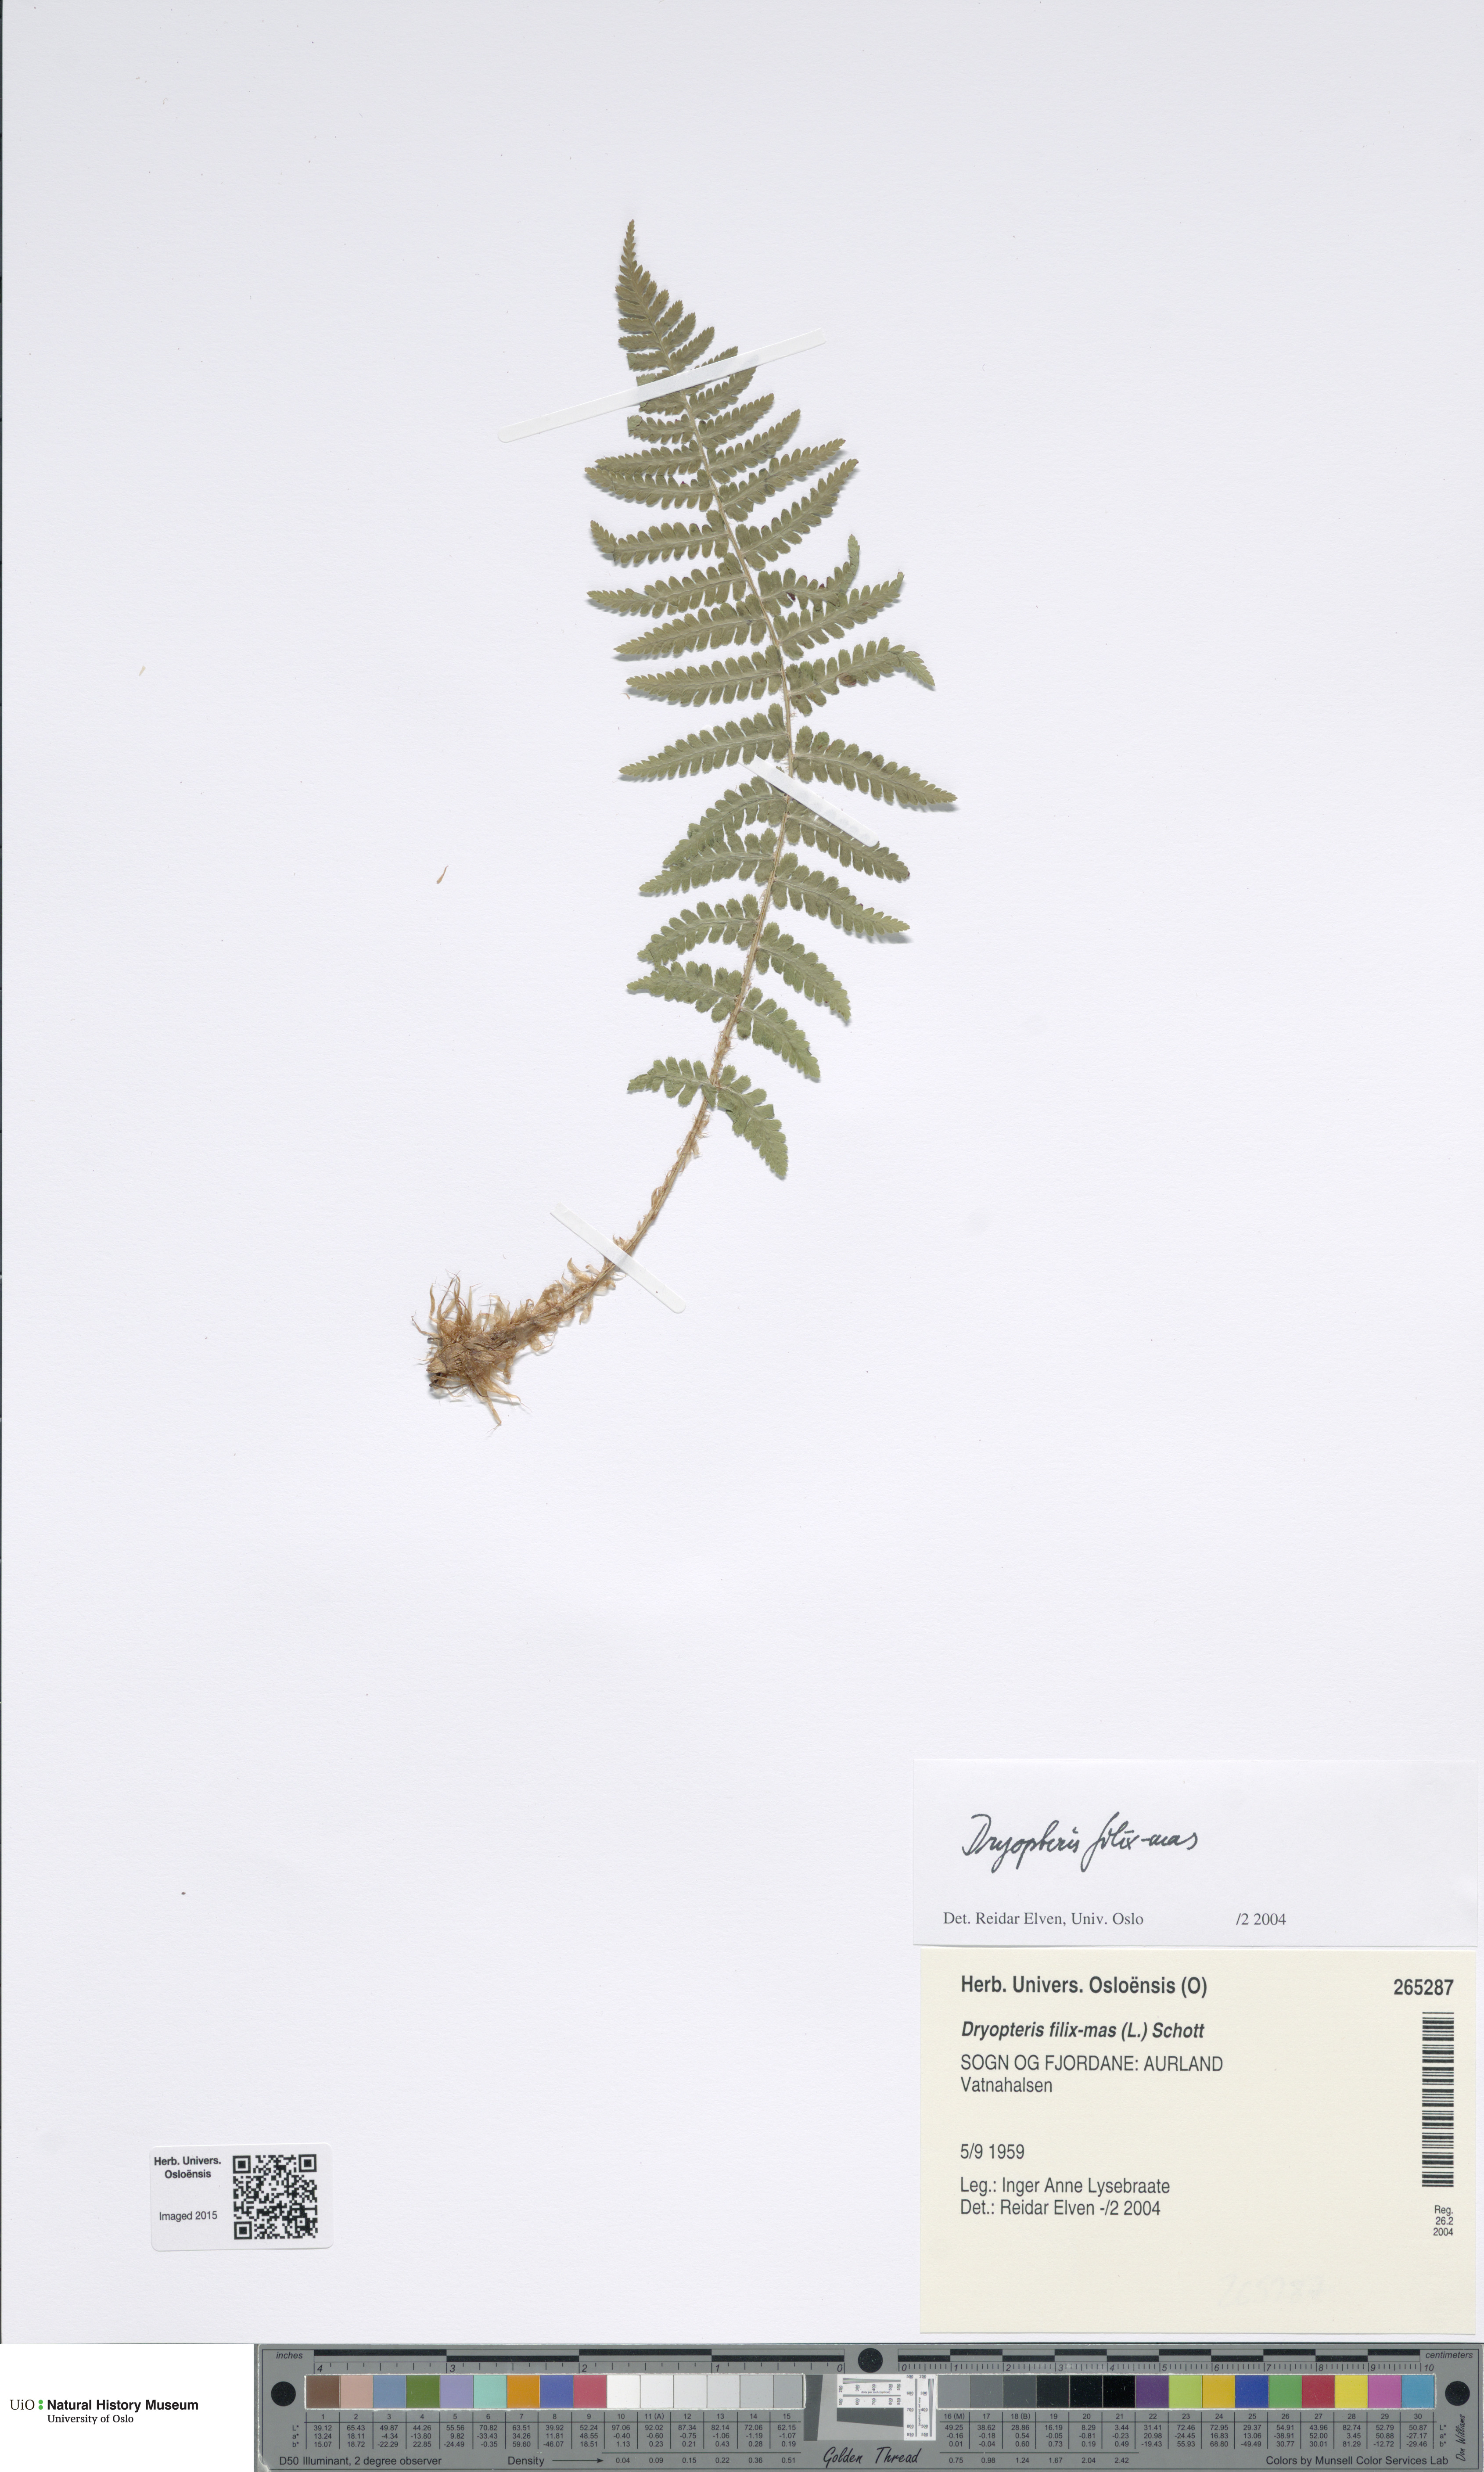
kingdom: Plantae
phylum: Tracheophyta
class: Polypodiopsida
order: Polypodiales
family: Dryopteridaceae
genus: Dryopteris
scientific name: Dryopteris filix-mas
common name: Male fern
